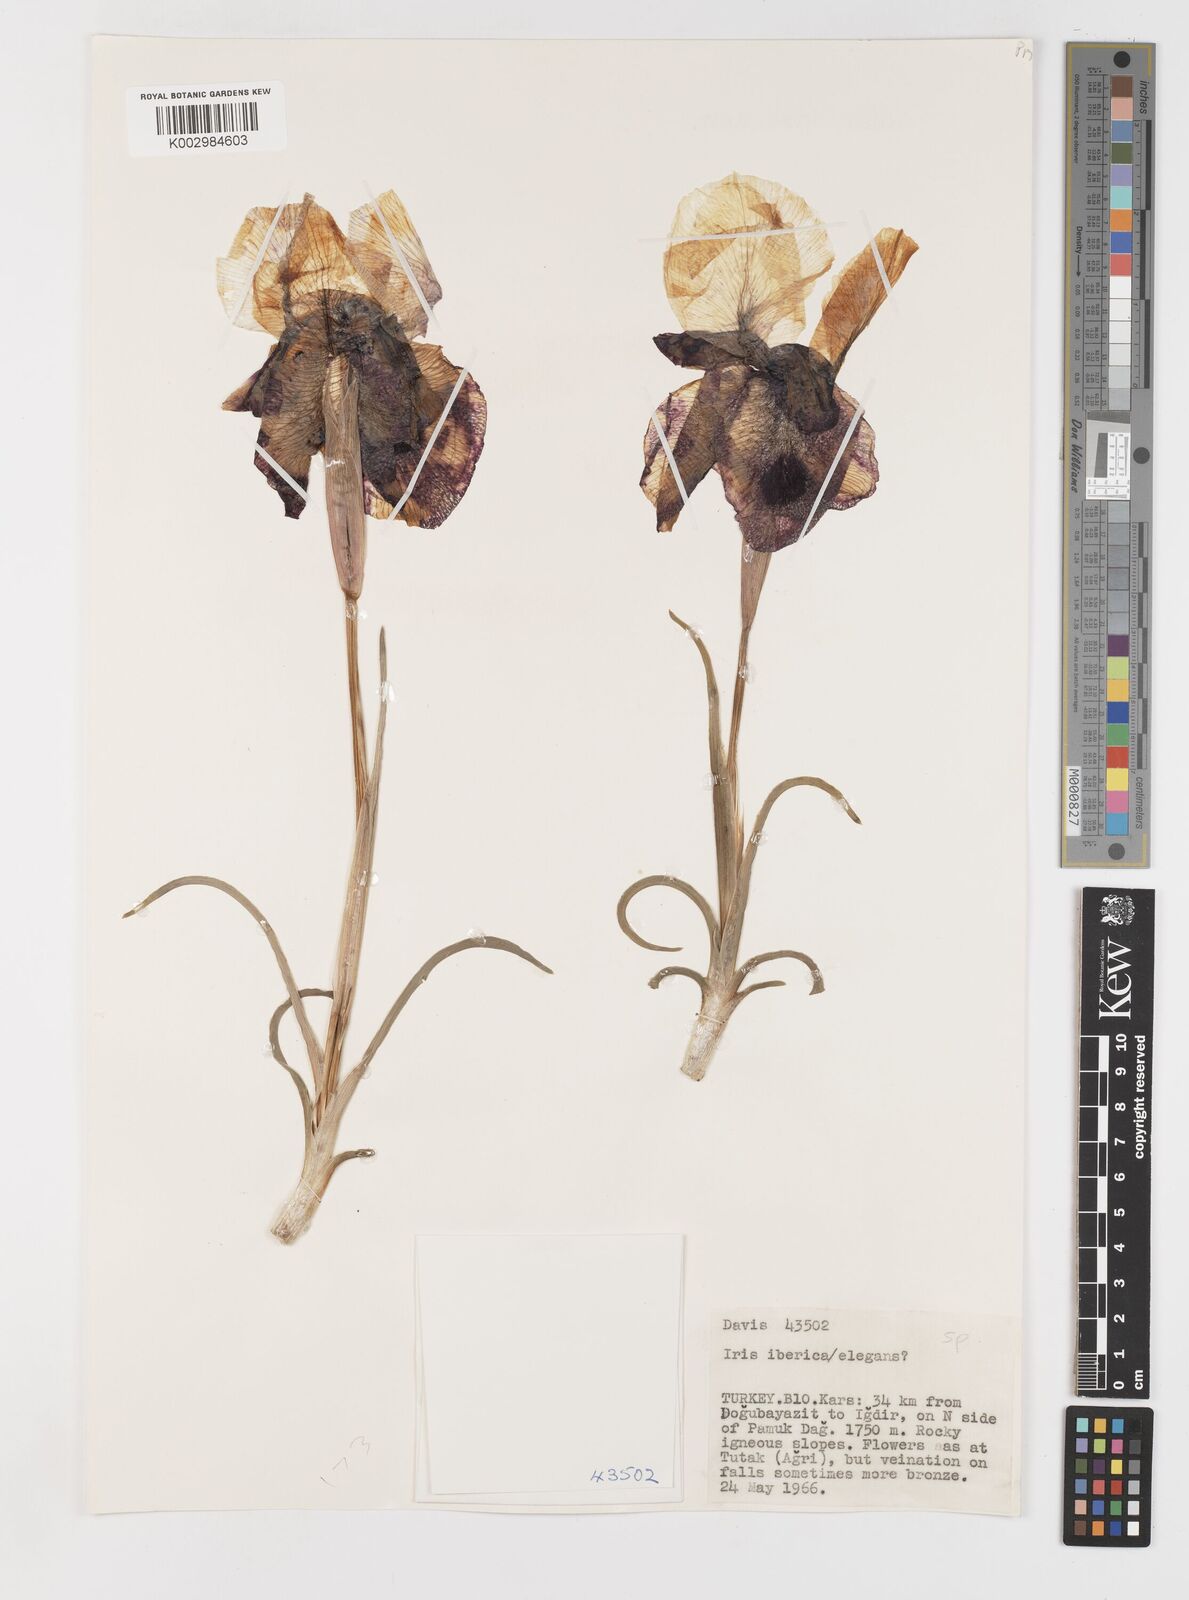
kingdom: Plantae
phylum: Tracheophyta
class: Liliopsida
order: Asparagales
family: Iridaceae
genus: Iris
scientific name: Iris iberica
